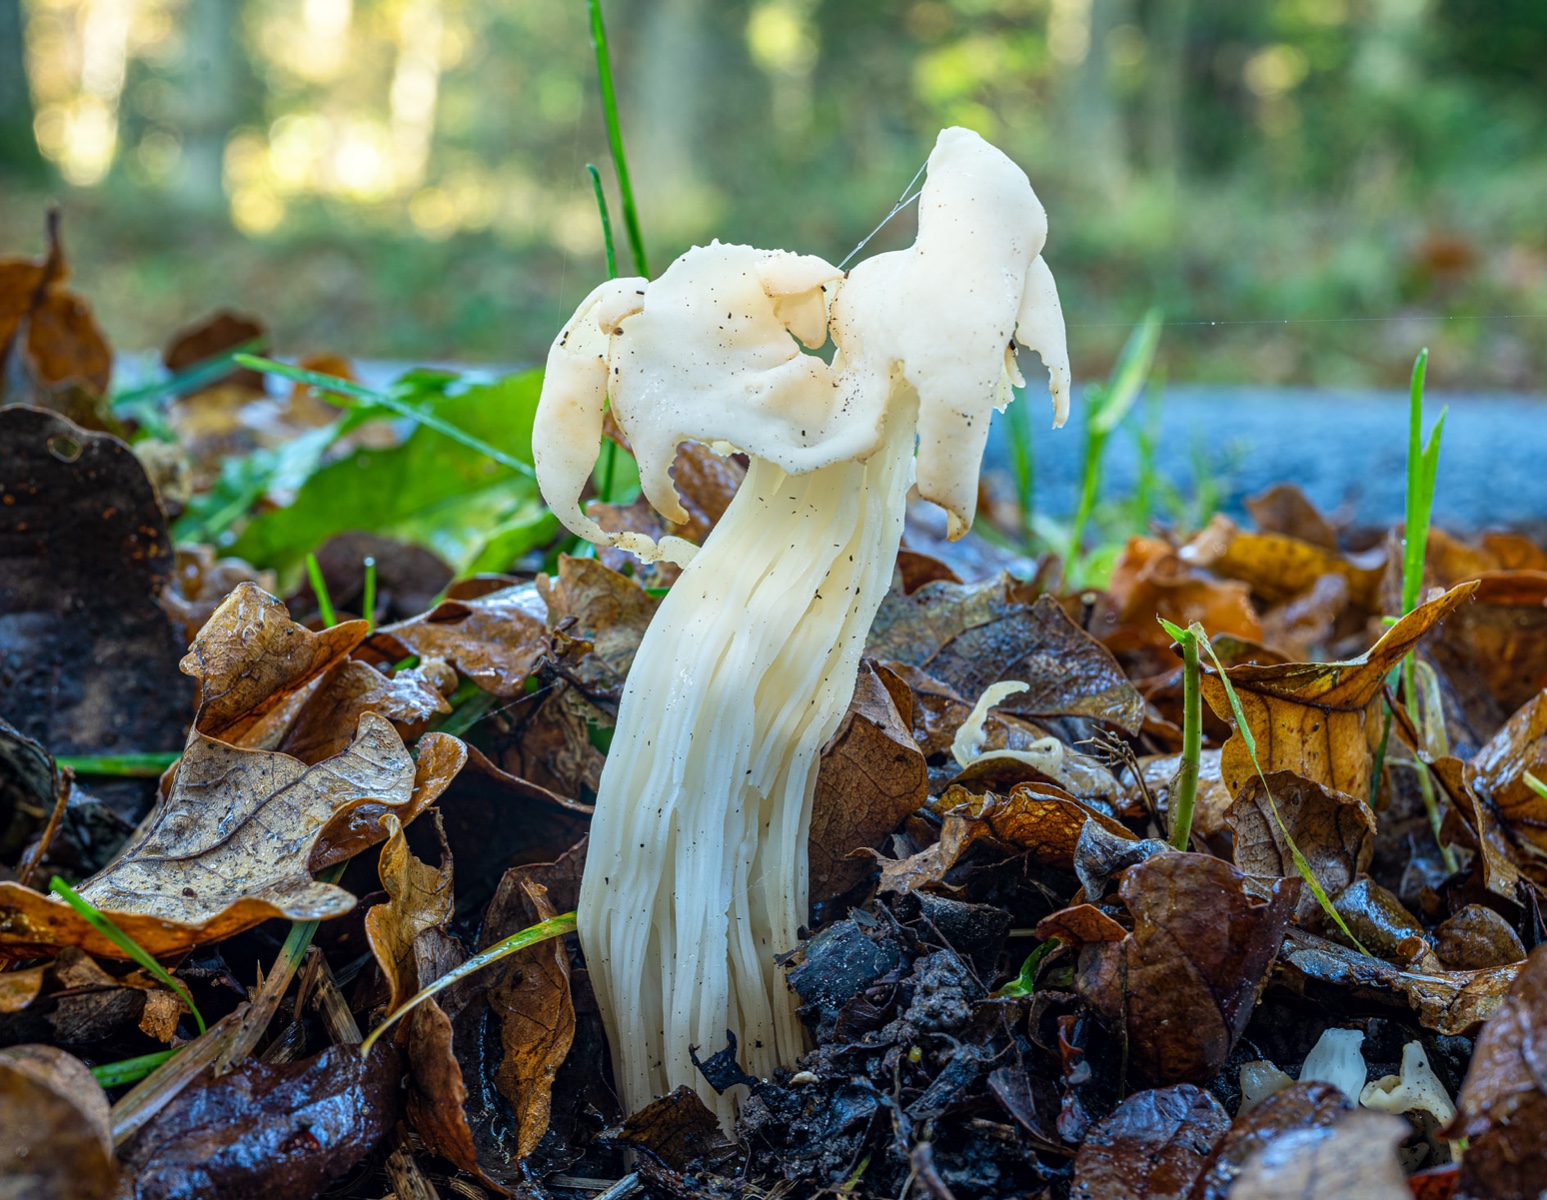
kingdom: Fungi
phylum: Ascomycota
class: Pezizomycetes
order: Pezizales
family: Helvellaceae
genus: Helvella
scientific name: Helvella crispa
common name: kruset foldhat
